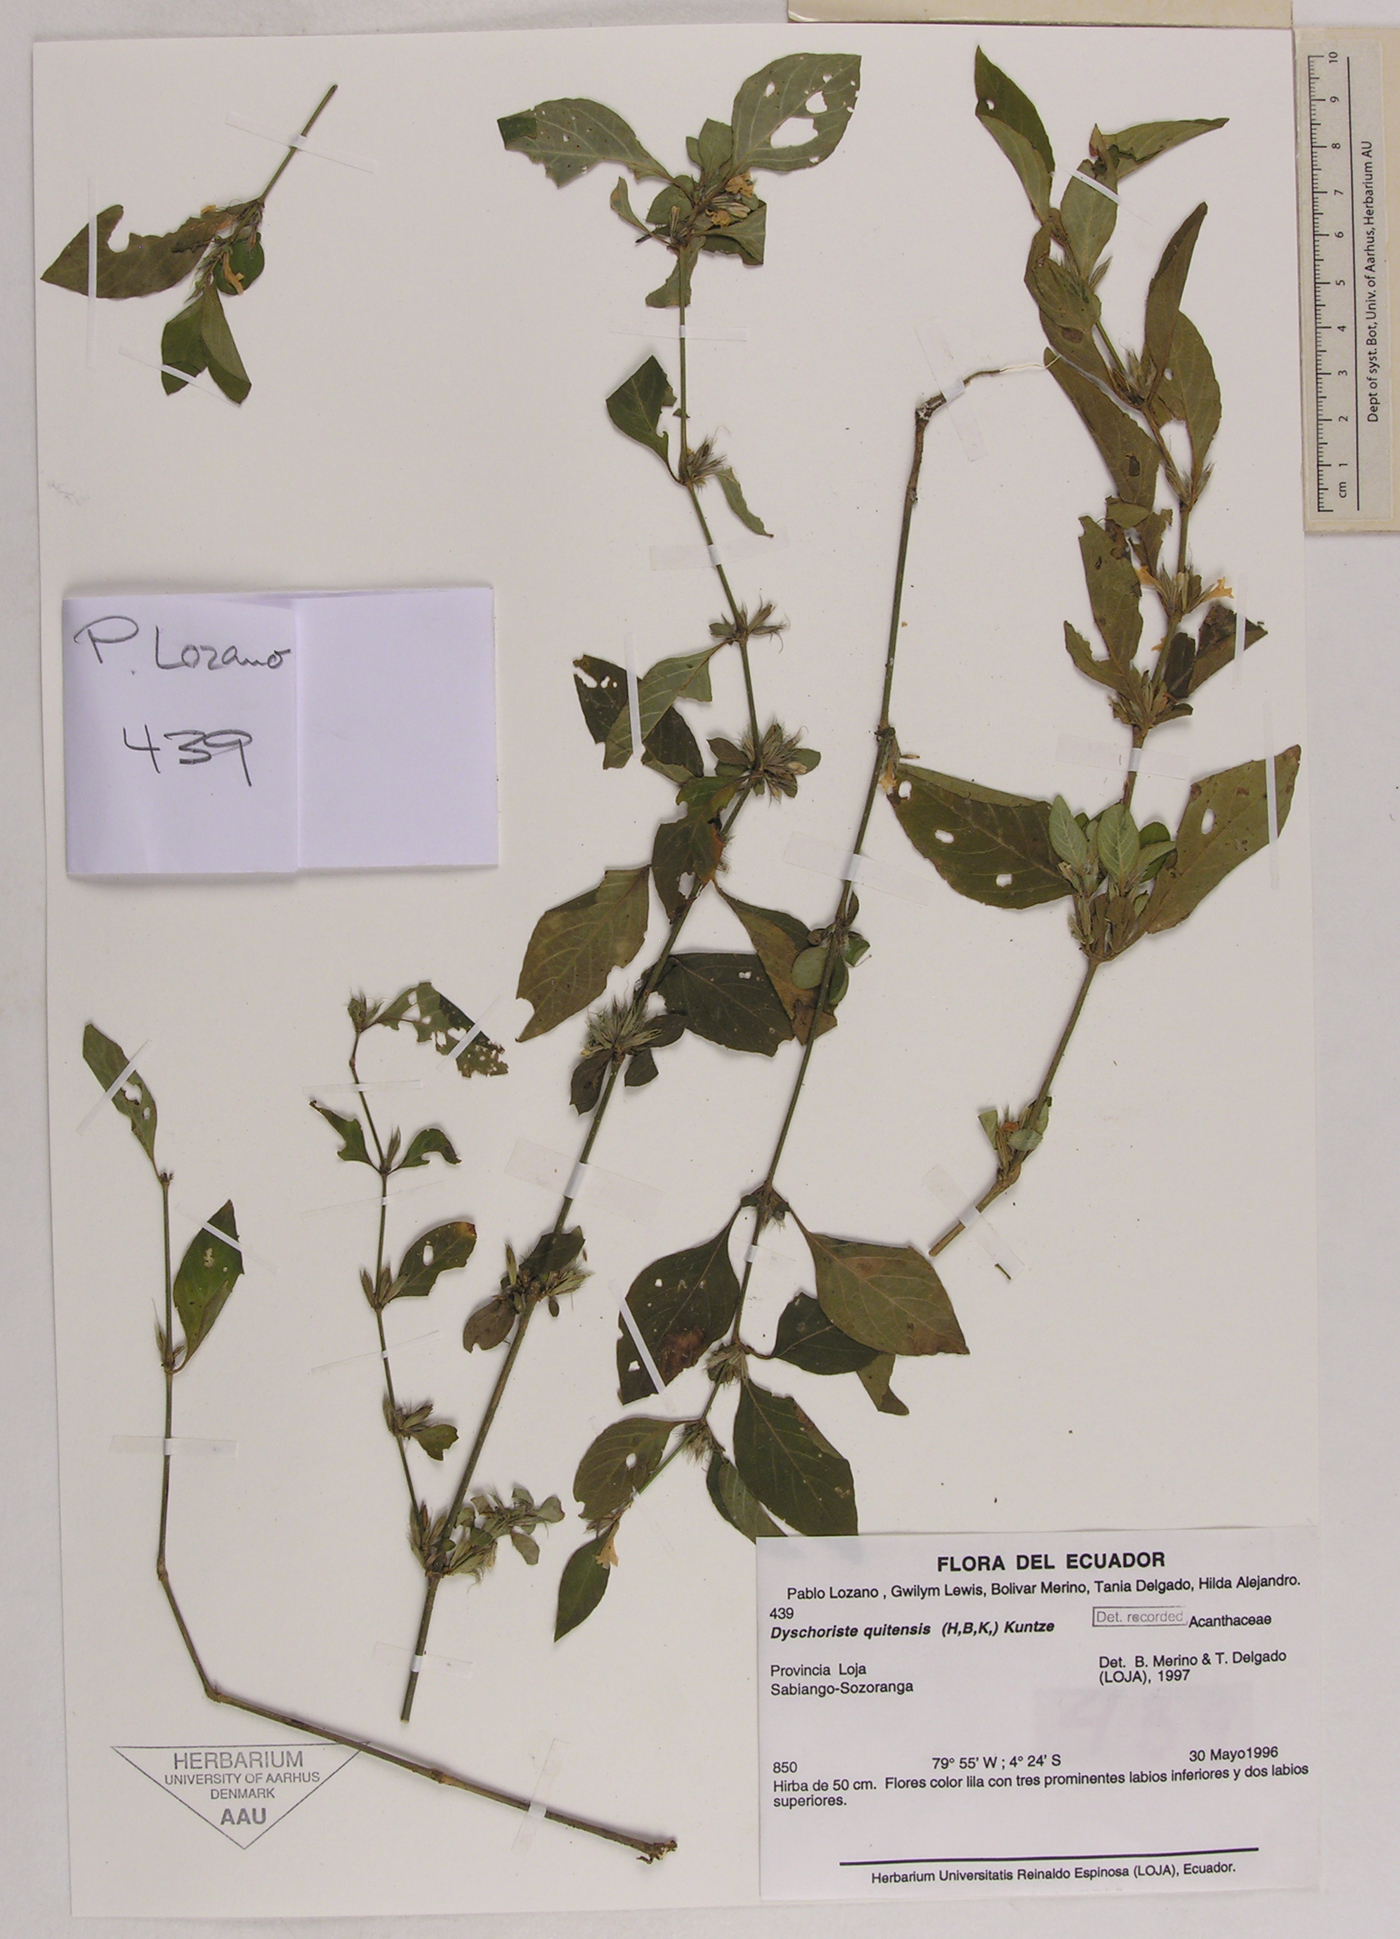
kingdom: Plantae
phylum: Tracheophyta
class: Magnoliopsida
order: Lamiales
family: Acanthaceae
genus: Dyschoriste
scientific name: Dyschoriste quitensis
